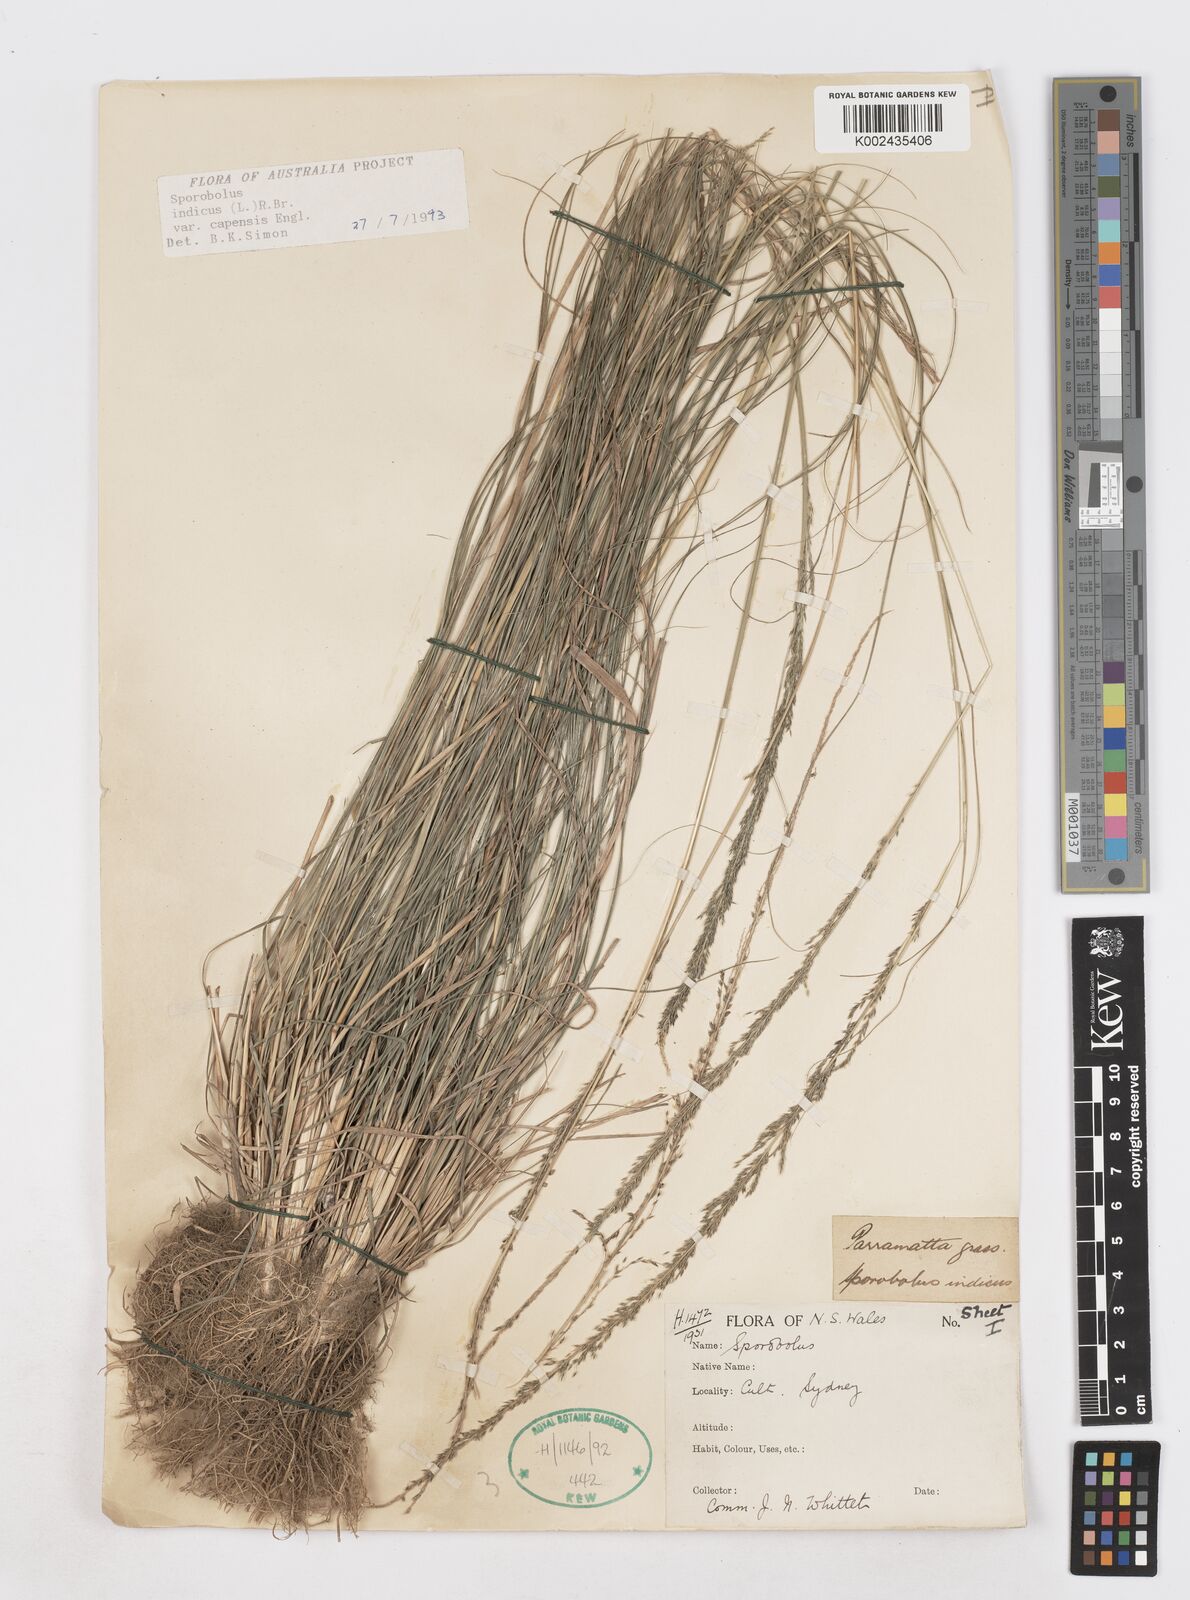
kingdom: Plantae
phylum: Tracheophyta
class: Liliopsida
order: Poales
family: Poaceae
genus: Sporobolus
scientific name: Sporobolus africanus
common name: African dropseed
